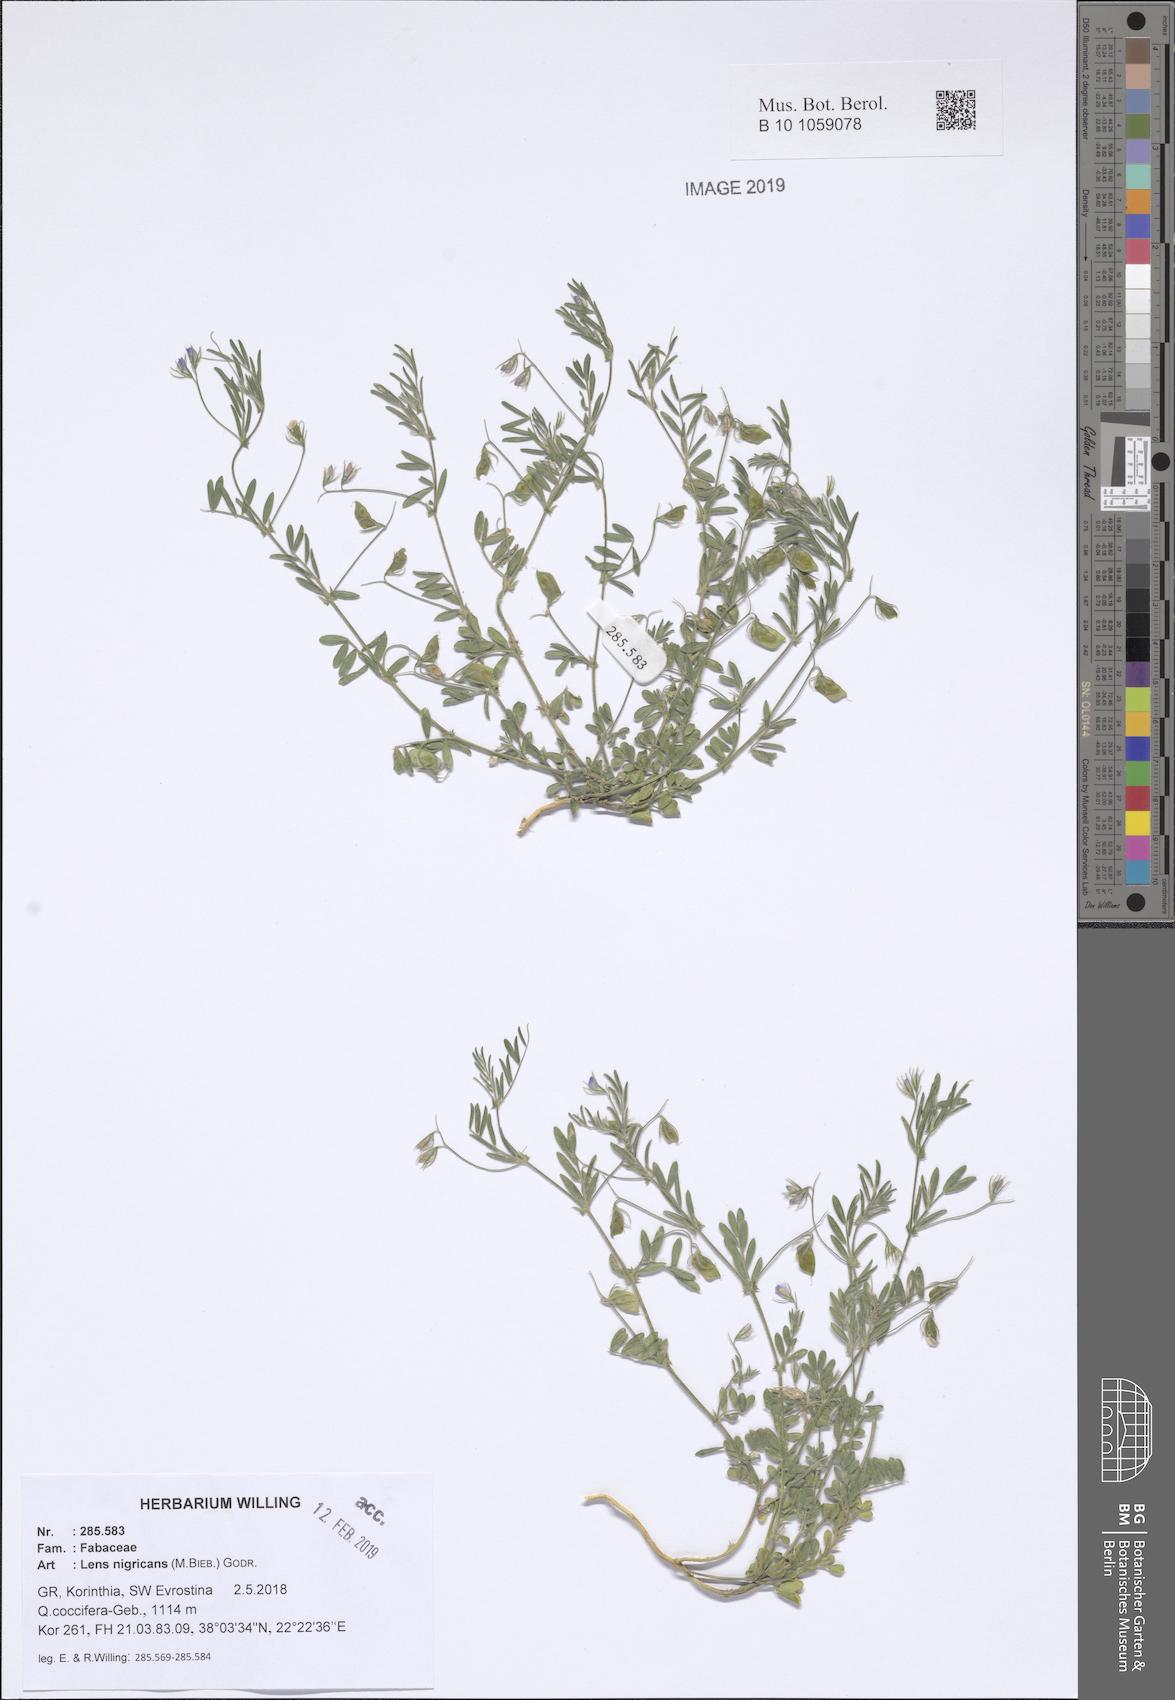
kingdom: Plantae
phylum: Tracheophyta
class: Magnoliopsida
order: Fabales
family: Fabaceae
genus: Vicia
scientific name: Vicia lentoides
